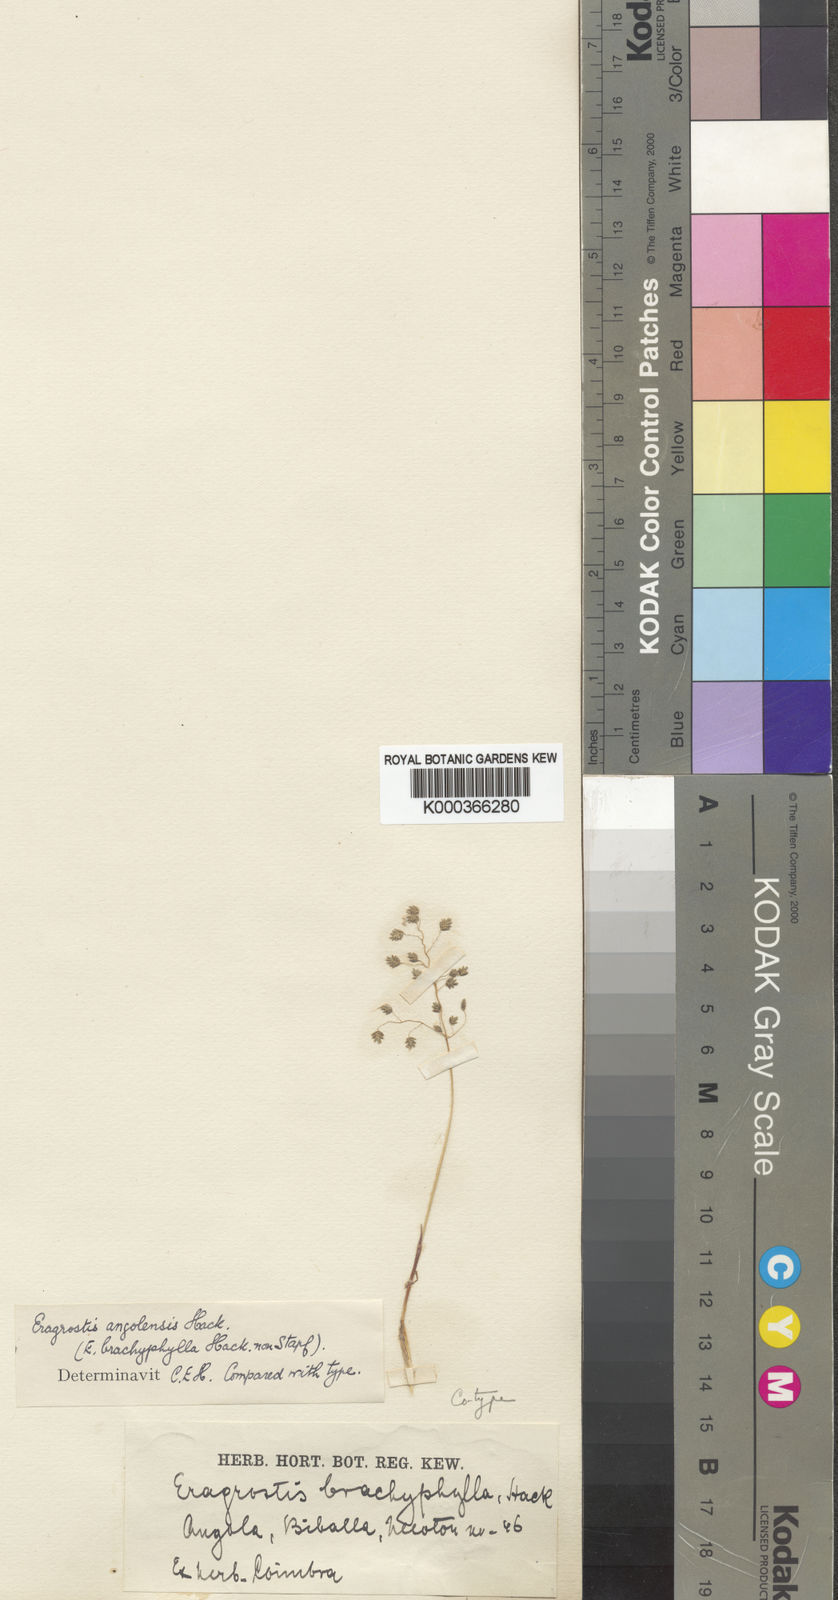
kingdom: Plantae
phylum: Tracheophyta
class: Liliopsida
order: Poales
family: Poaceae
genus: Eragrostis
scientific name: Eragrostis vacillans
